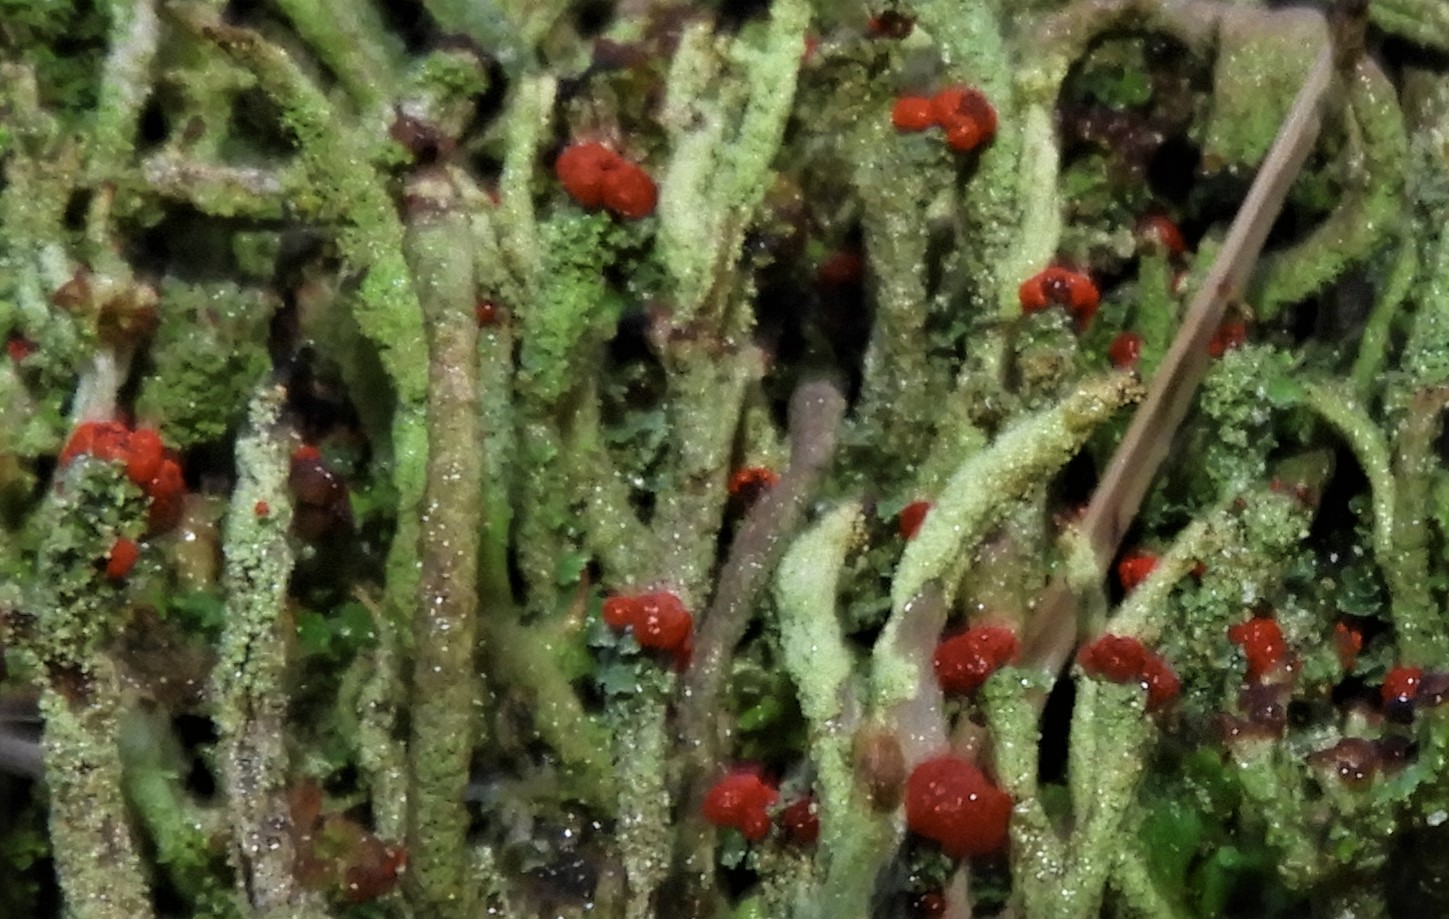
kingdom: Fungi
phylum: Ascomycota
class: Lecanoromycetes
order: Lecanorales
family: Cladoniaceae
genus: Cladonia
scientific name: Cladonia floerkeana
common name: lakrød bægerlav
